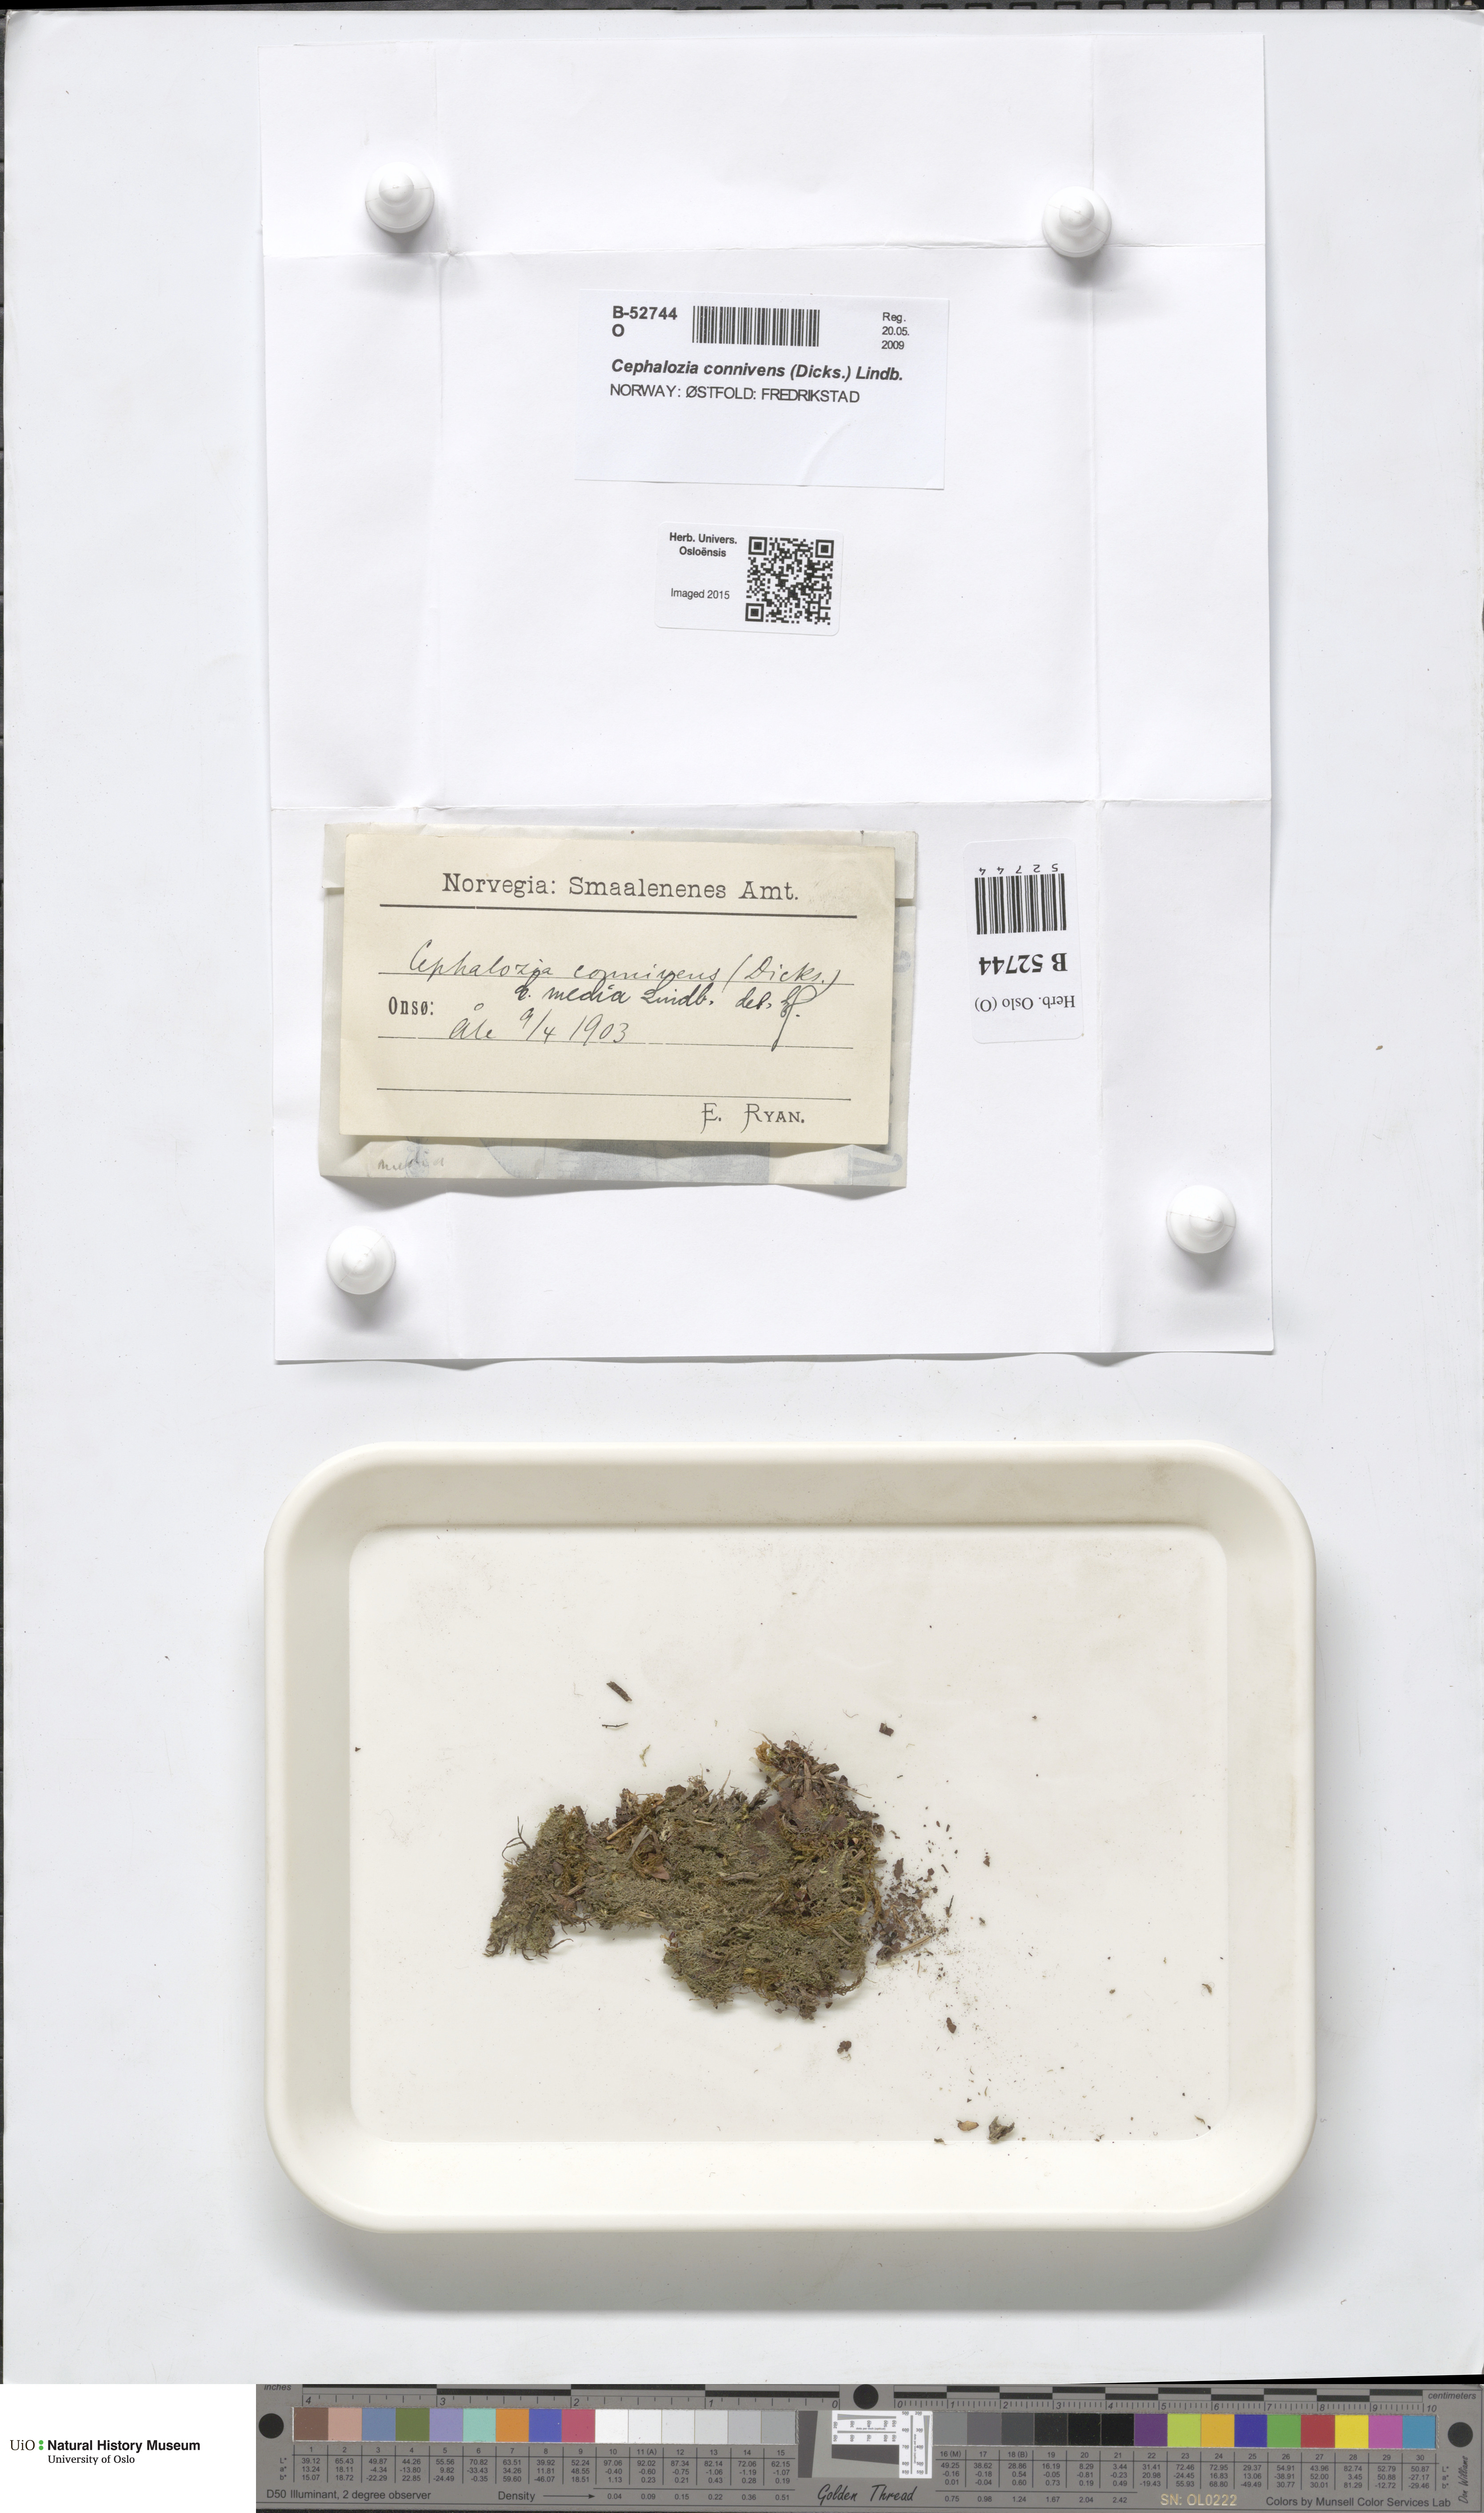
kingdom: Plantae
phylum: Marchantiophyta
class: Jungermanniopsida
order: Jungermanniales
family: Cephaloziaceae
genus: Fuscocephaloziopsis
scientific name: Fuscocephaloziopsis lunulifolia
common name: Moon-leaved pincerwort
